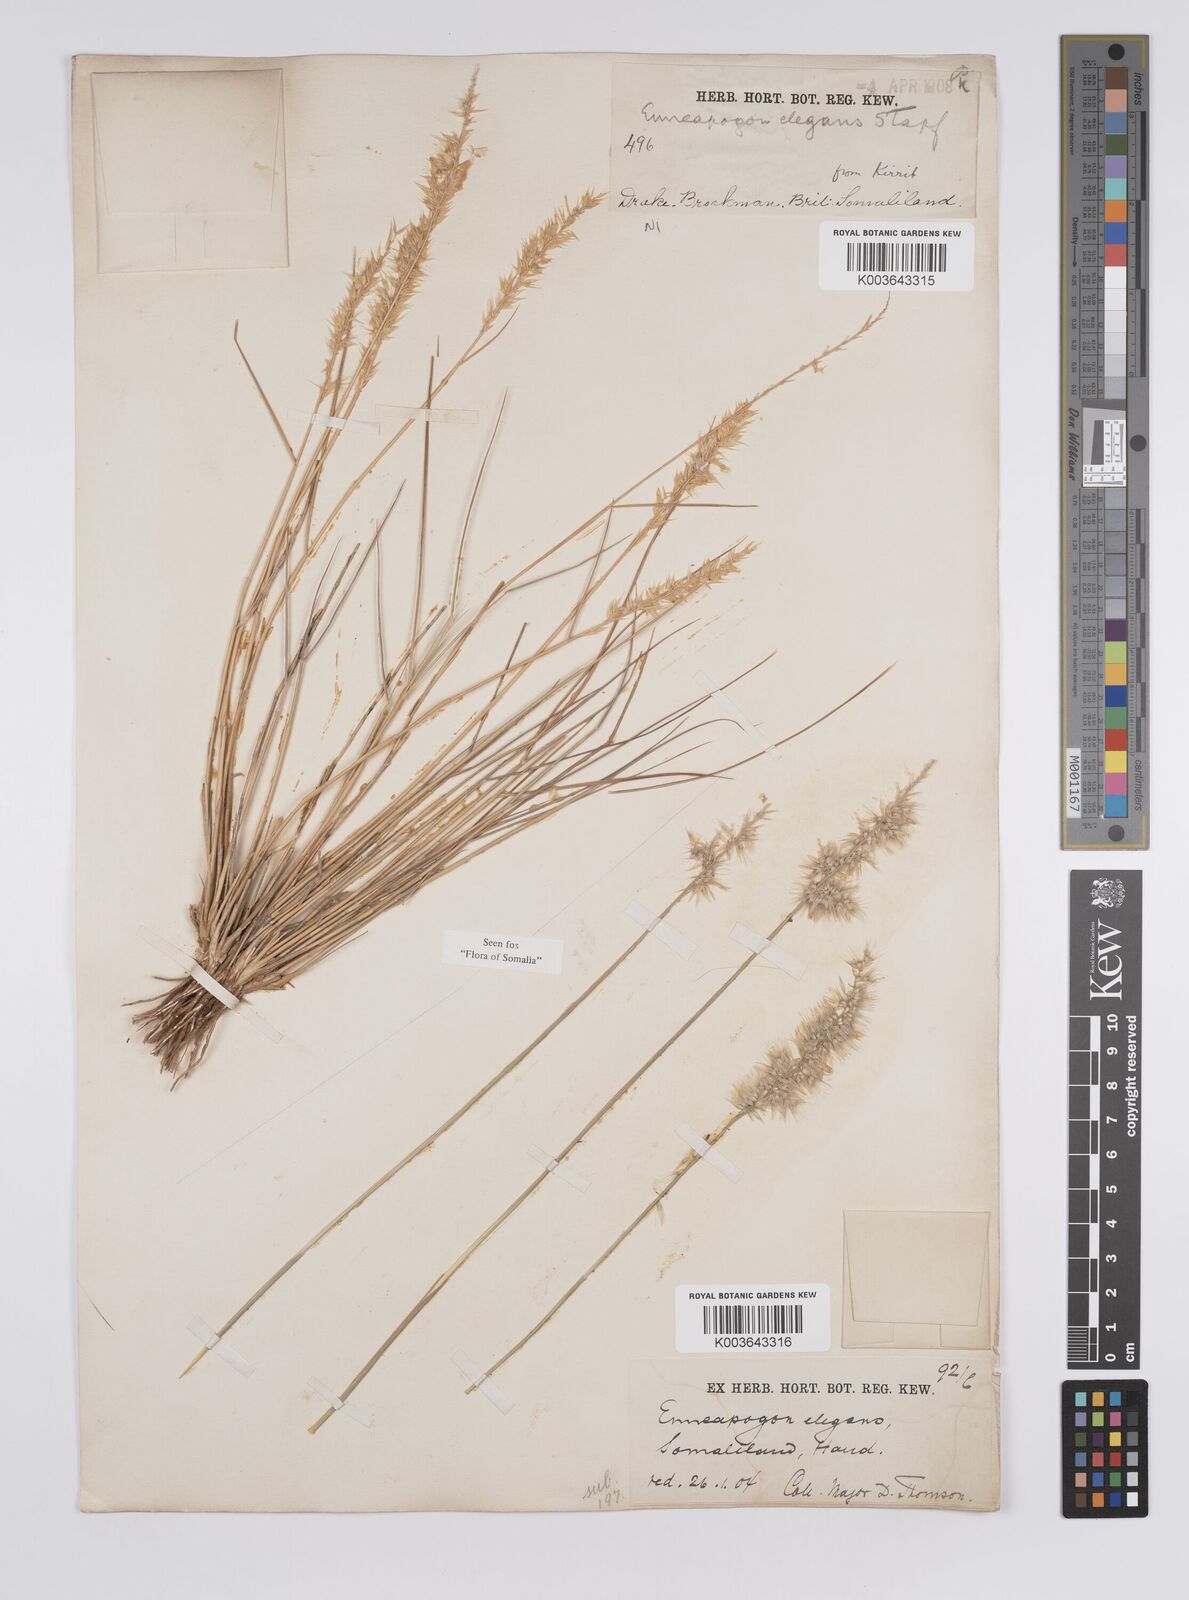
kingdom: Plantae
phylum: Tracheophyta
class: Liliopsida
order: Poales
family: Poaceae
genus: Enneapogon
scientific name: Enneapogon persicus
